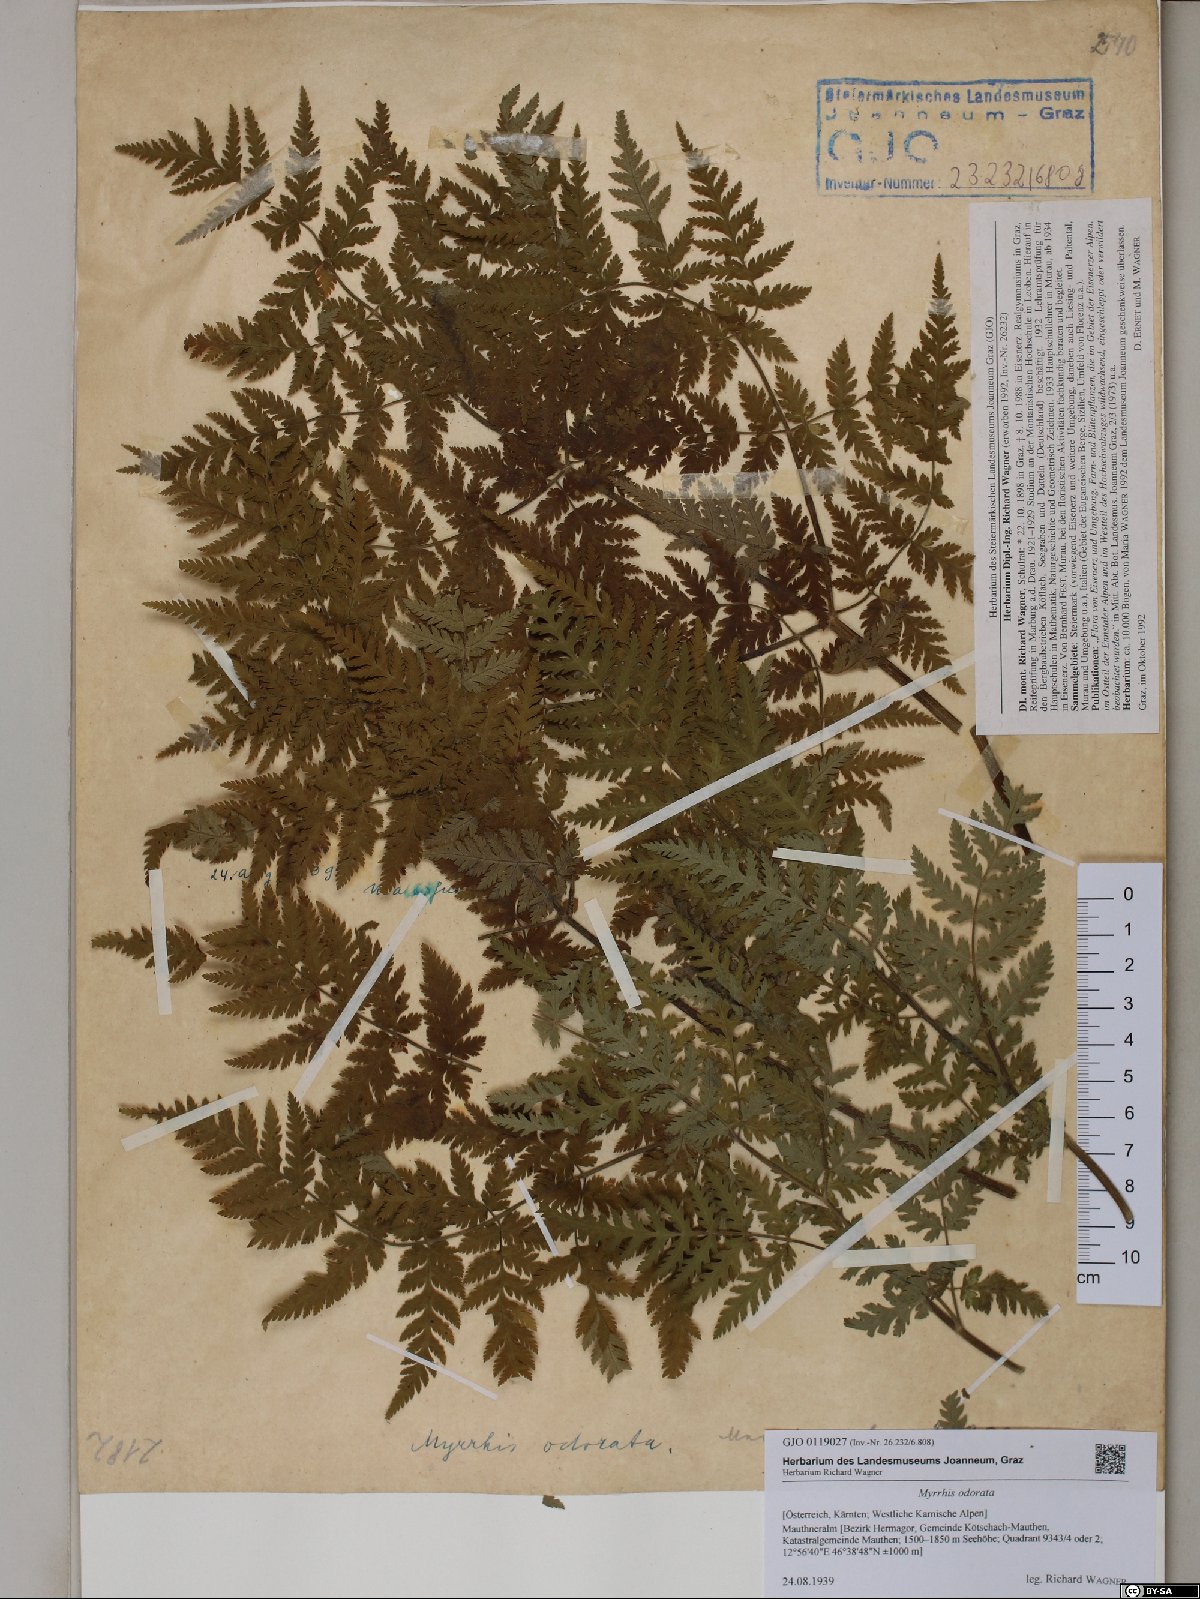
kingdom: Plantae
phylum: Tracheophyta
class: Magnoliopsida
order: Apiales
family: Apiaceae
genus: Myrrhis
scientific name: Myrrhis odorata
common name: Sweet cicely
